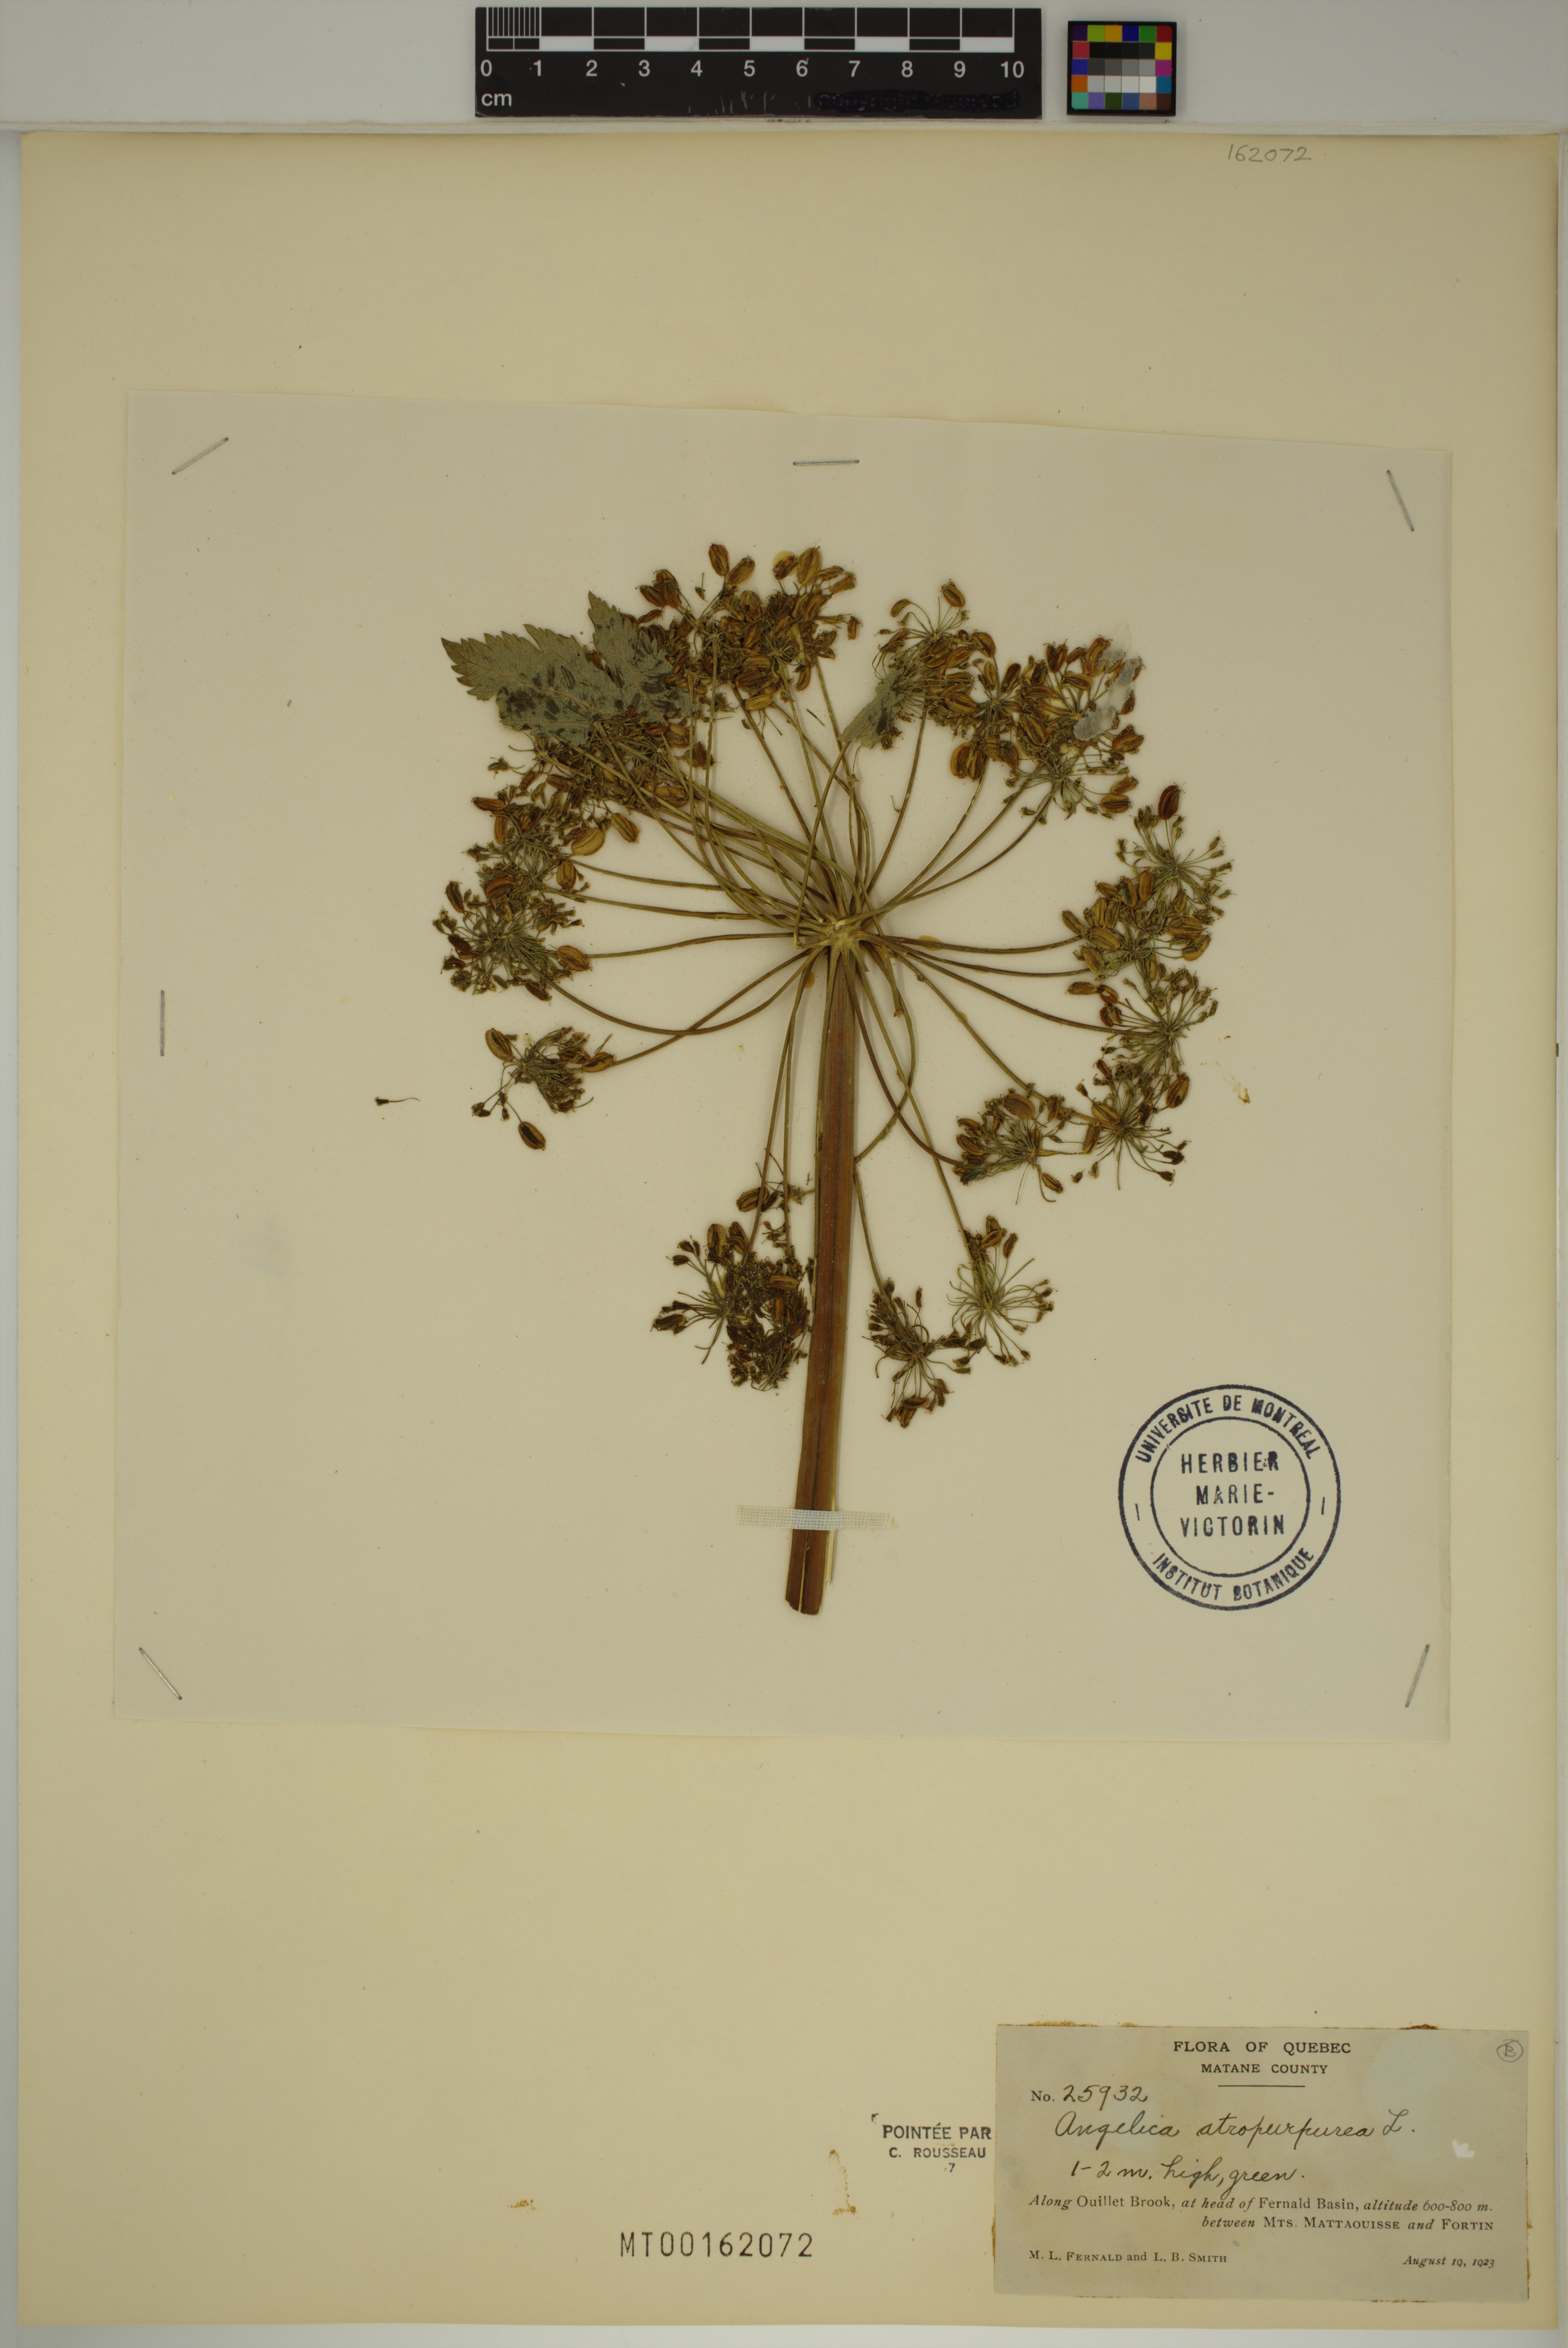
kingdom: Plantae
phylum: Tracheophyta
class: Magnoliopsida
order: Apiales
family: Apiaceae
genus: Angelica
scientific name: Angelica atropurpurea
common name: Great angelica
